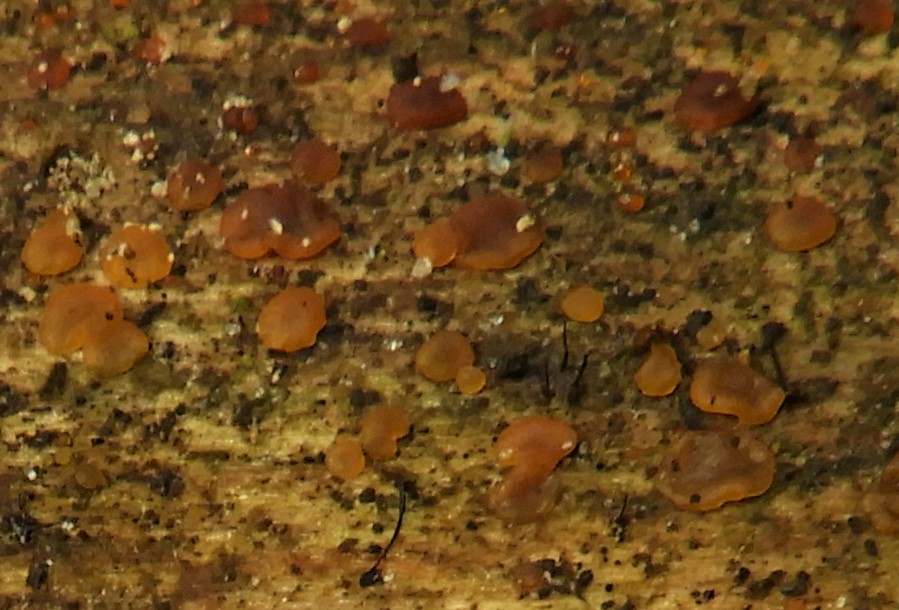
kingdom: Fungi
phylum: Basidiomycota
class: Dacrymycetes
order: Dacrymycetales
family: Dacrymycetaceae
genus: Dacrymyces
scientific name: Dacrymyces stillatus
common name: almindelig tåresvamp
